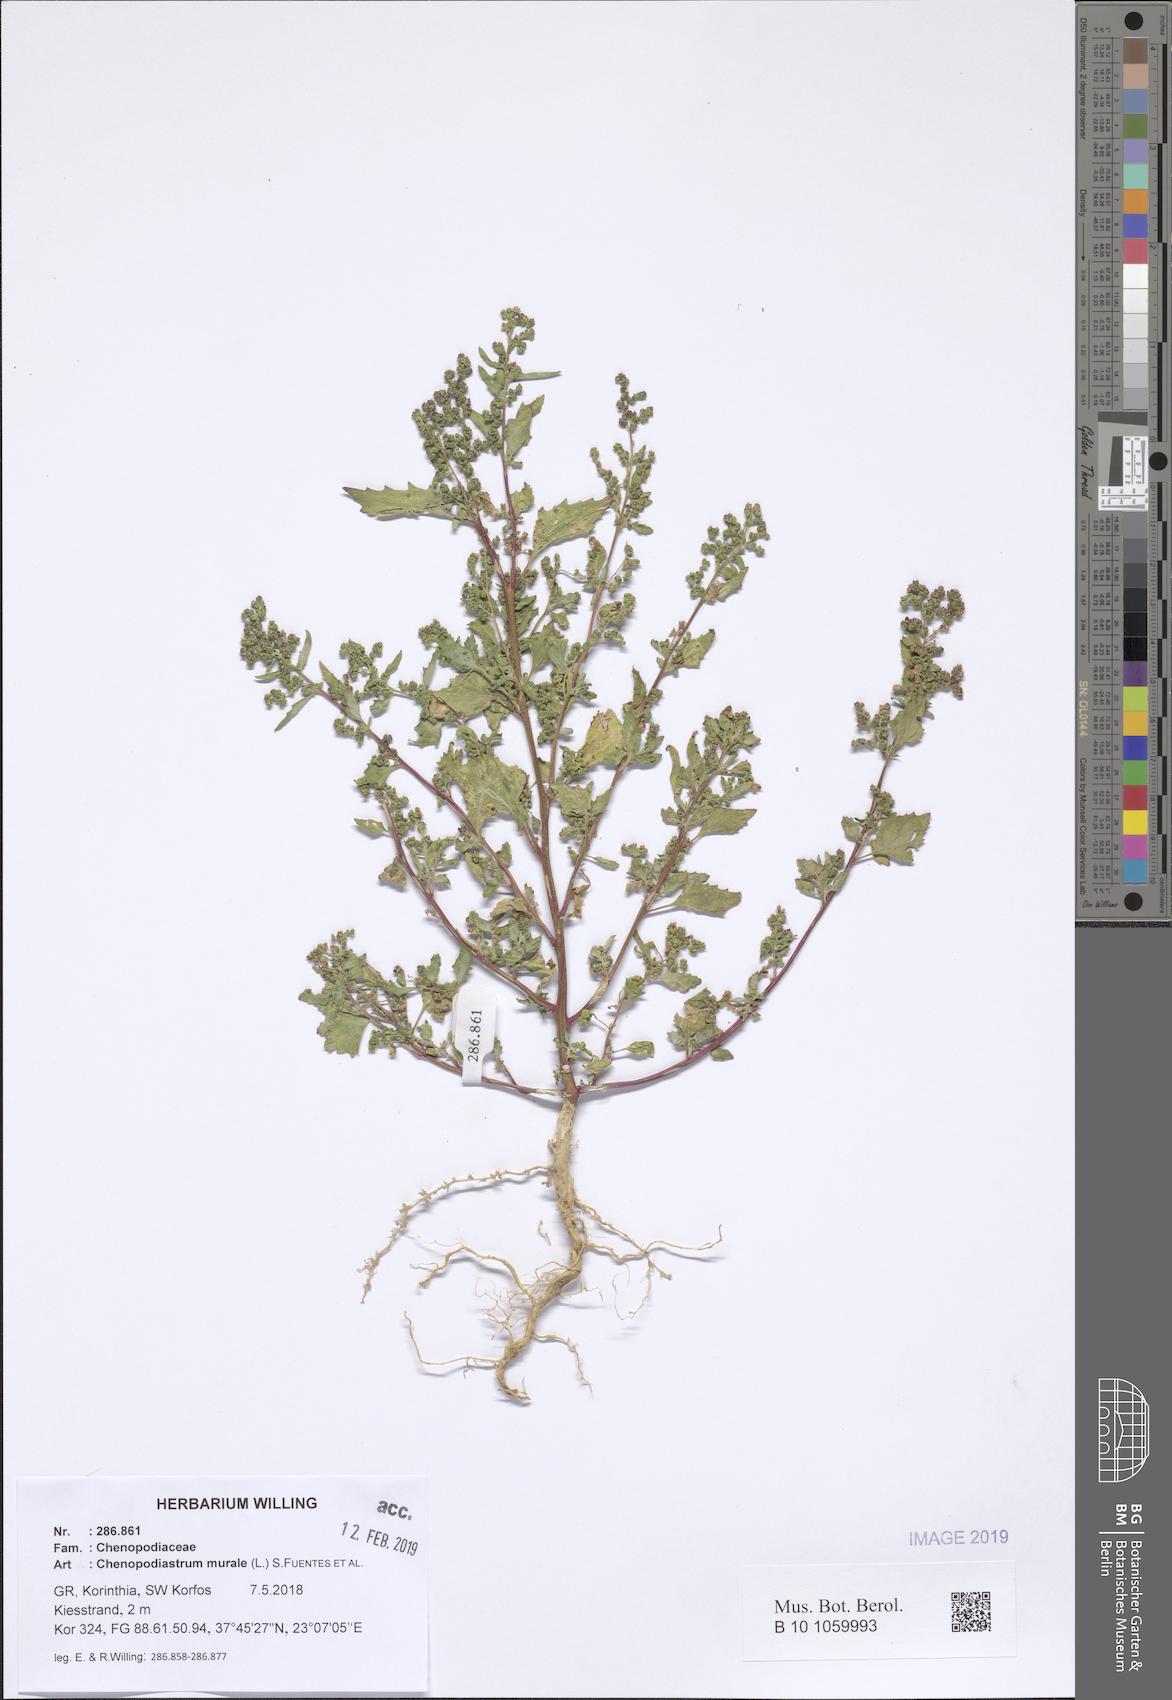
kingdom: Plantae
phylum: Tracheophyta
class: Magnoliopsida
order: Caryophyllales
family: Amaranthaceae
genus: Chenopodiastrum
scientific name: Chenopodiastrum murale
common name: Sowbane
